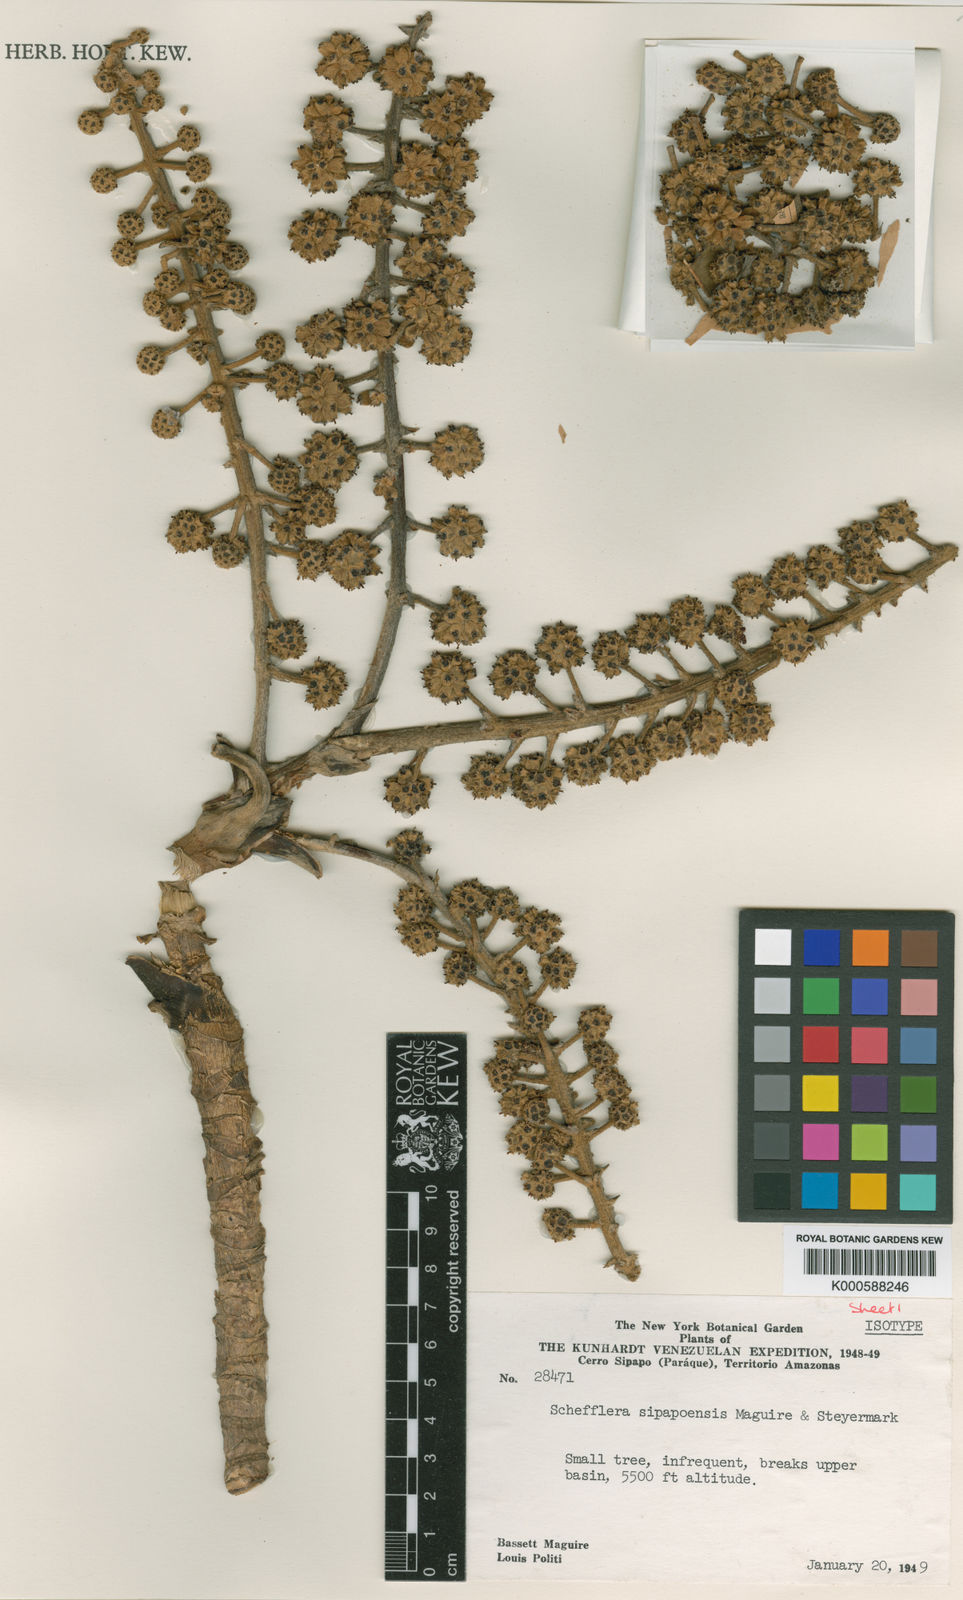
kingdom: Plantae
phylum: Tracheophyta
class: Magnoliopsida
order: Apiales
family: Araliaceae
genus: Sciodaphyllum
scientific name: Sciodaphyllum sipapoense
